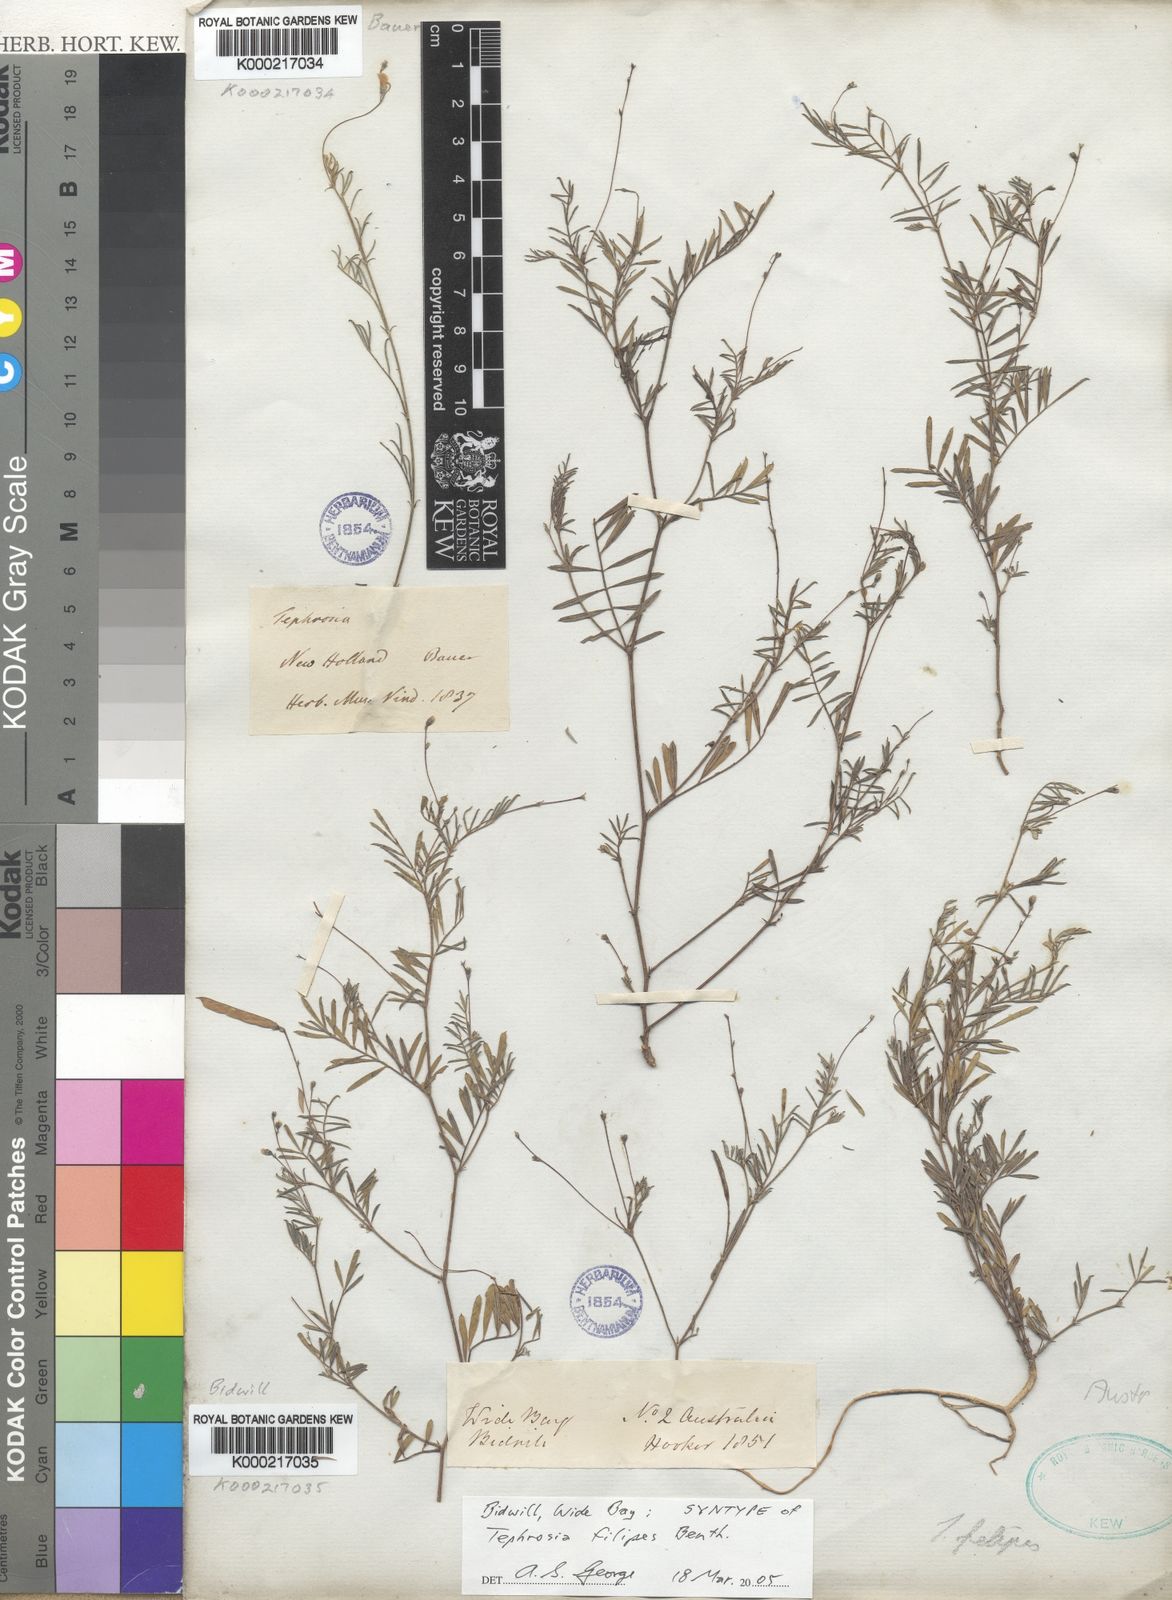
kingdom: Plantae
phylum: Tracheophyta
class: Magnoliopsida
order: Fabales
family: Fabaceae
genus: Tephrosia
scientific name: Tephrosia
